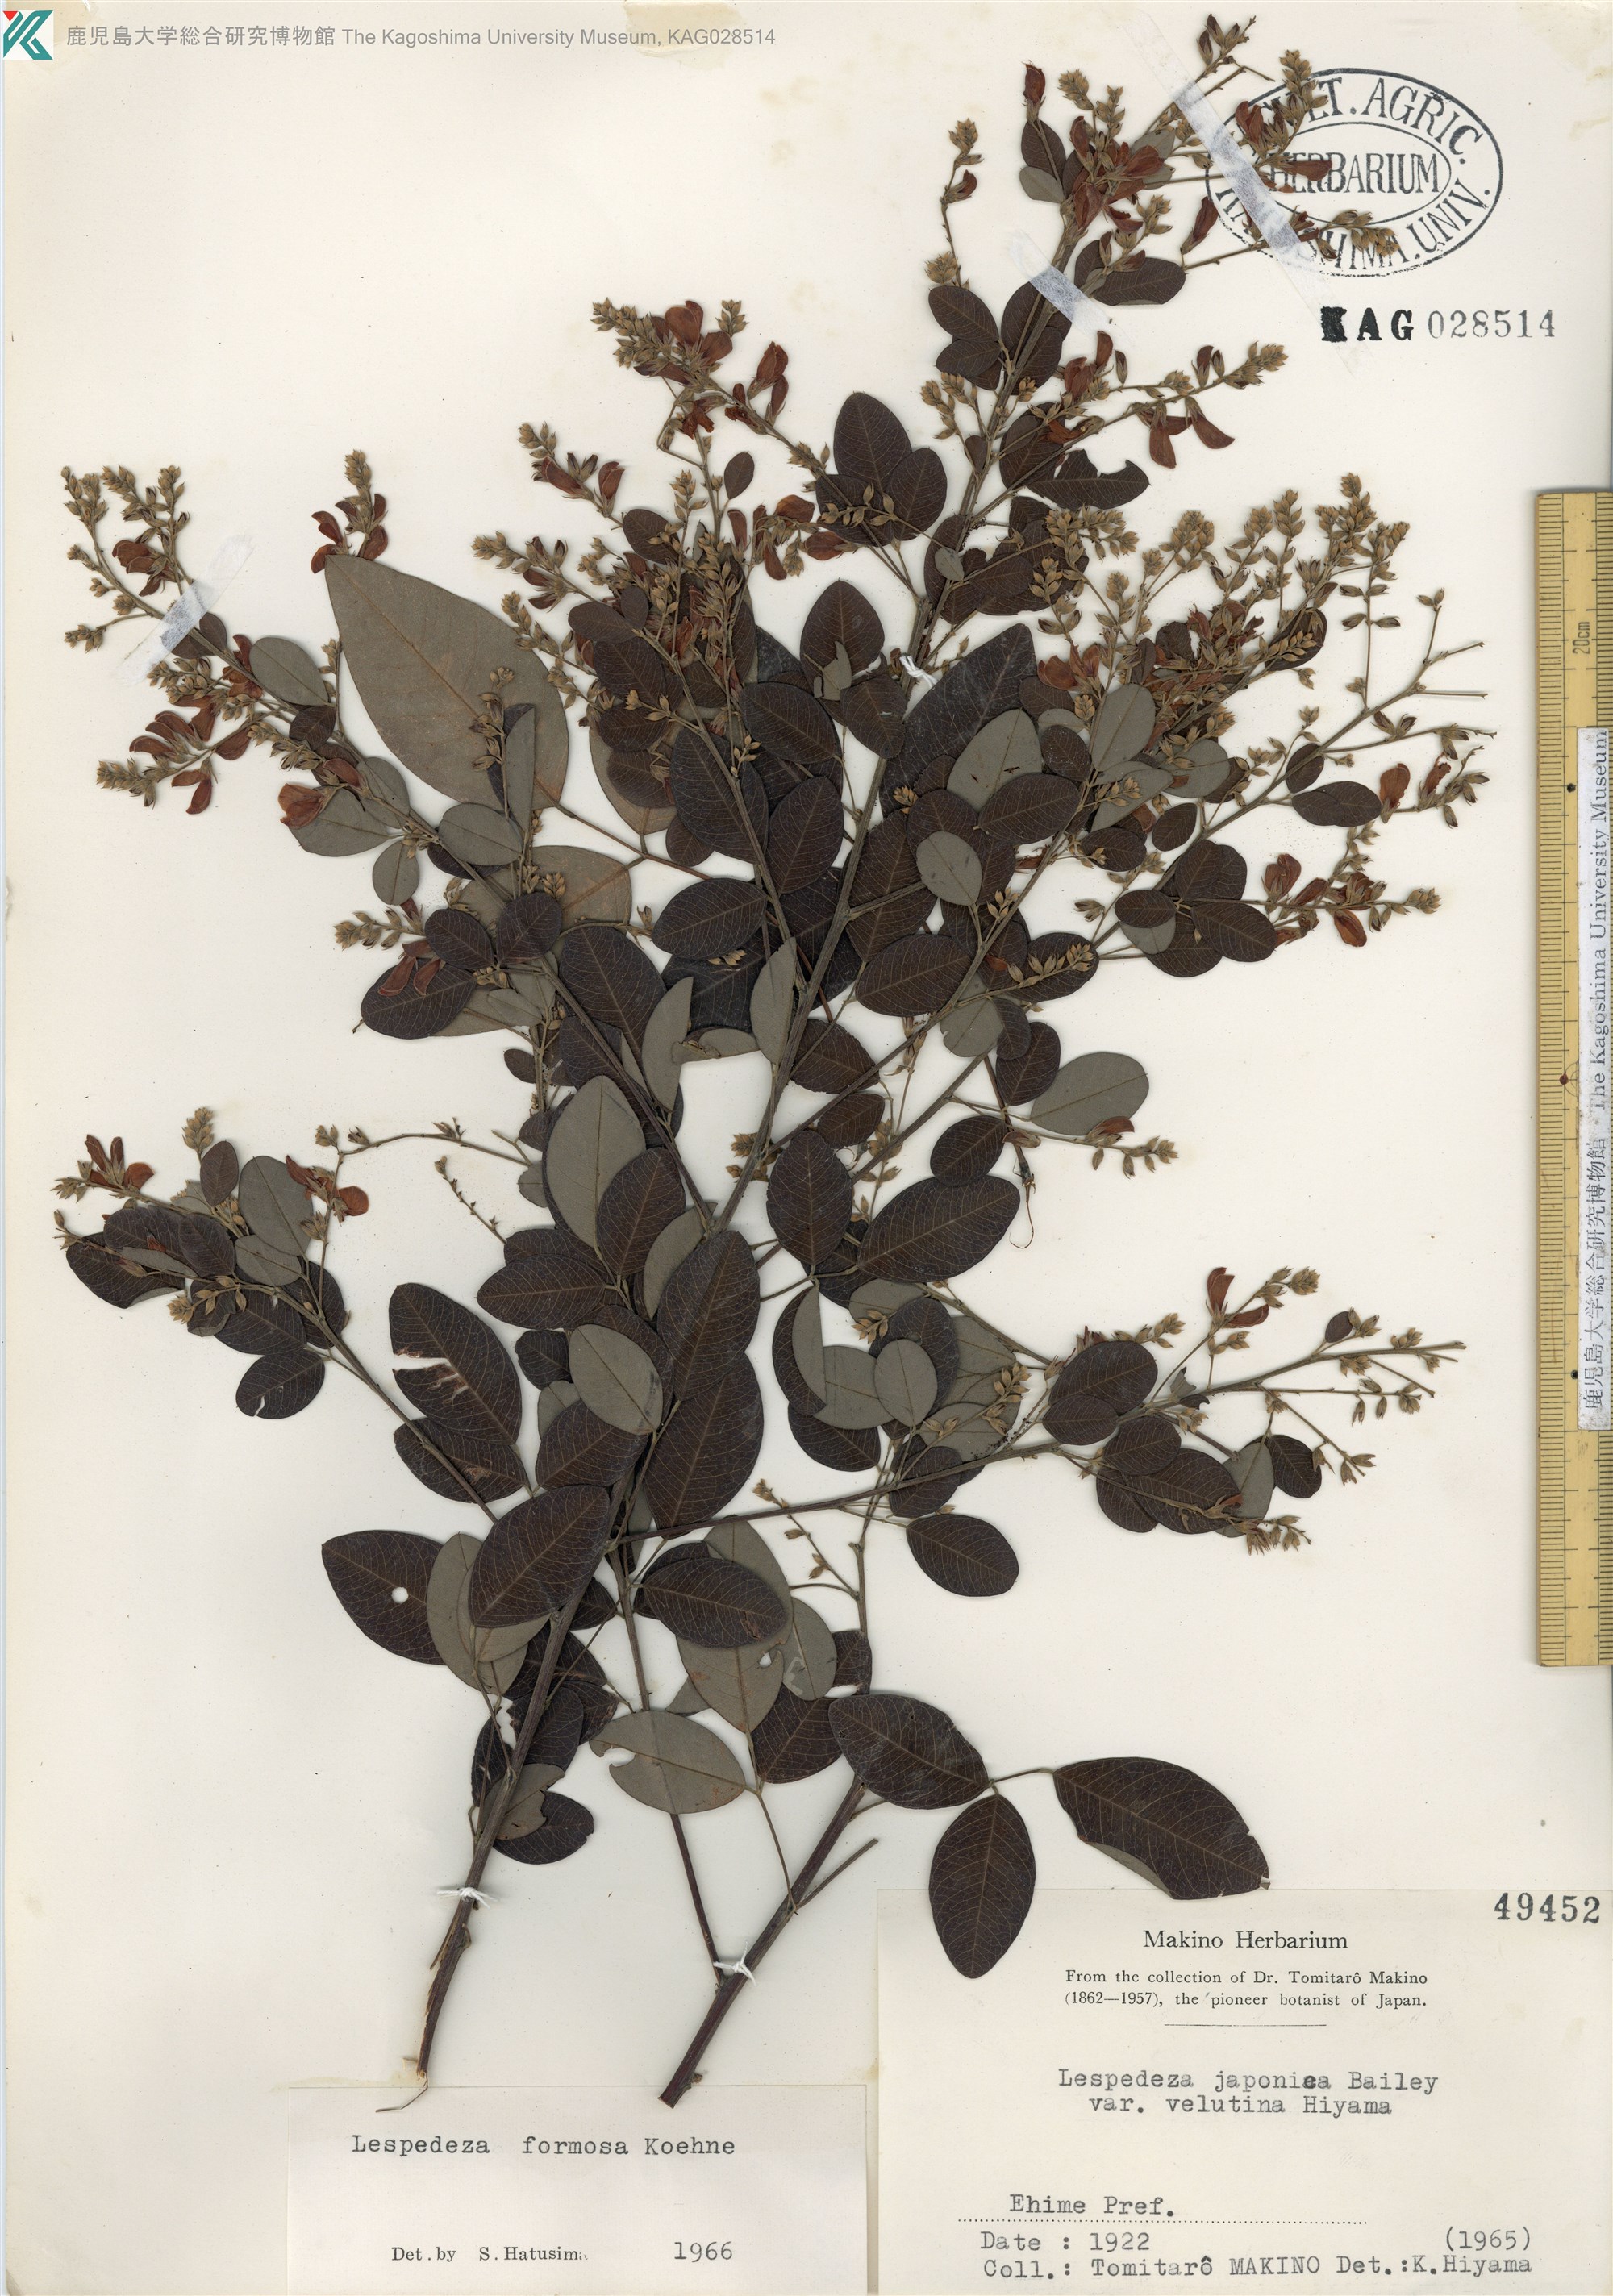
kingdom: Plantae
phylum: Tracheophyta
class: Magnoliopsida
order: Fabales
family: Fabaceae
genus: Lespedeza
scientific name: Lespedeza thunbergii
